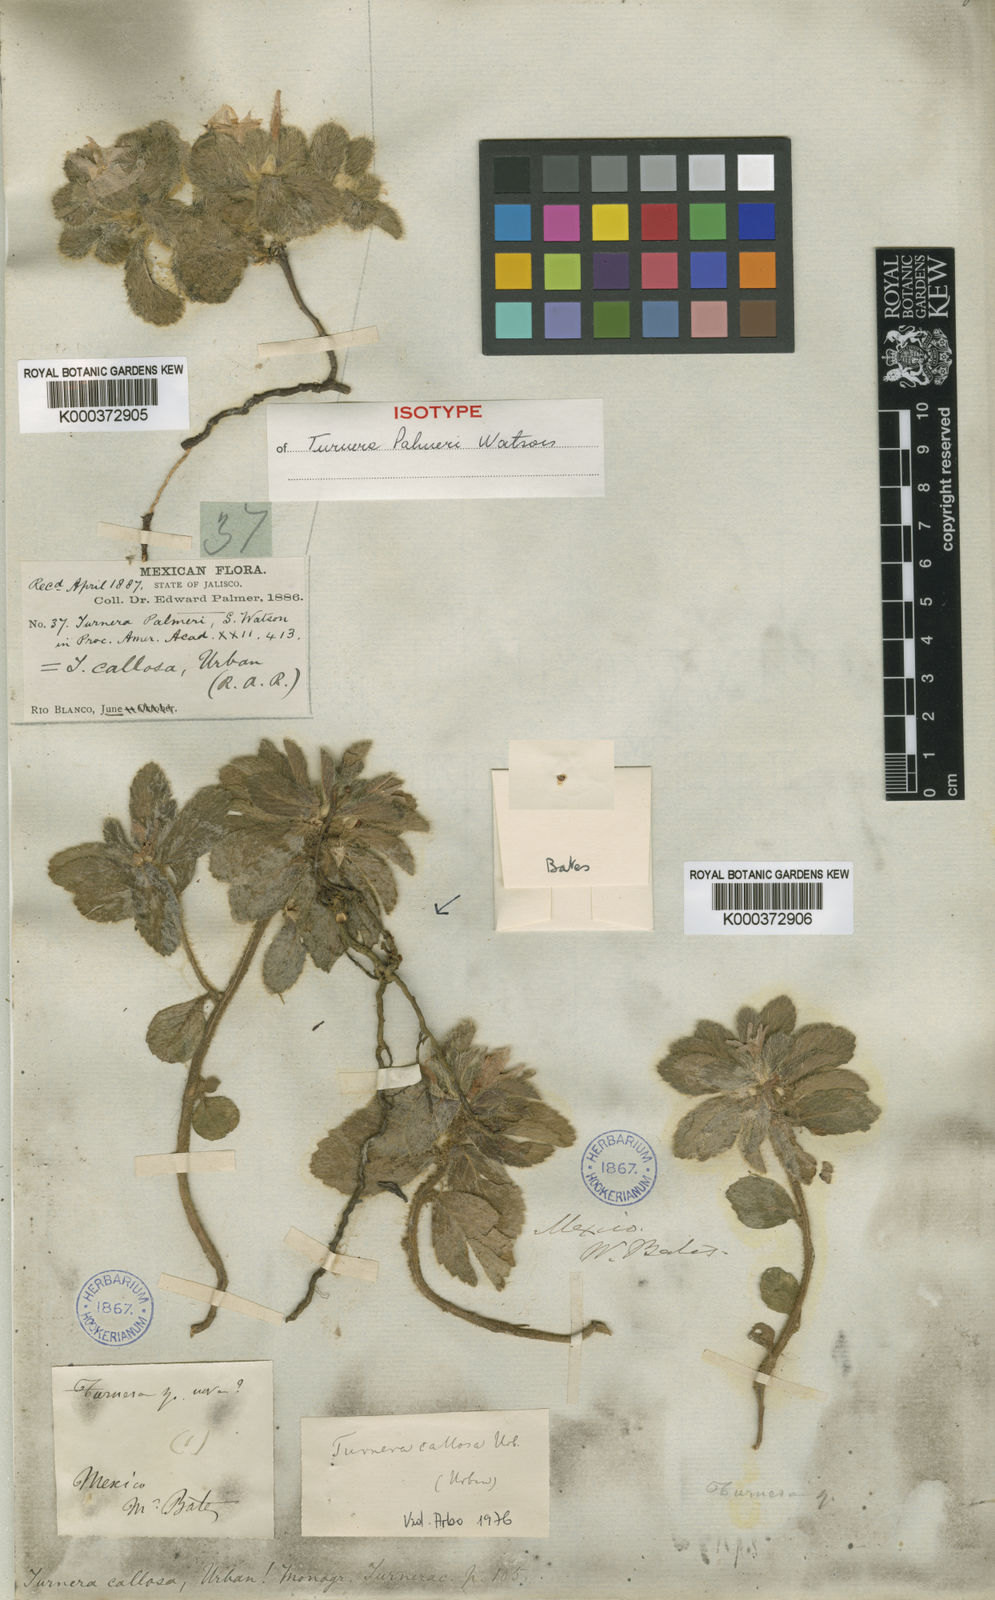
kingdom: Plantae
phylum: Tracheophyta
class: Magnoliopsida
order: Malpighiales
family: Turneraceae
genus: Turnera
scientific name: Turnera callosa
